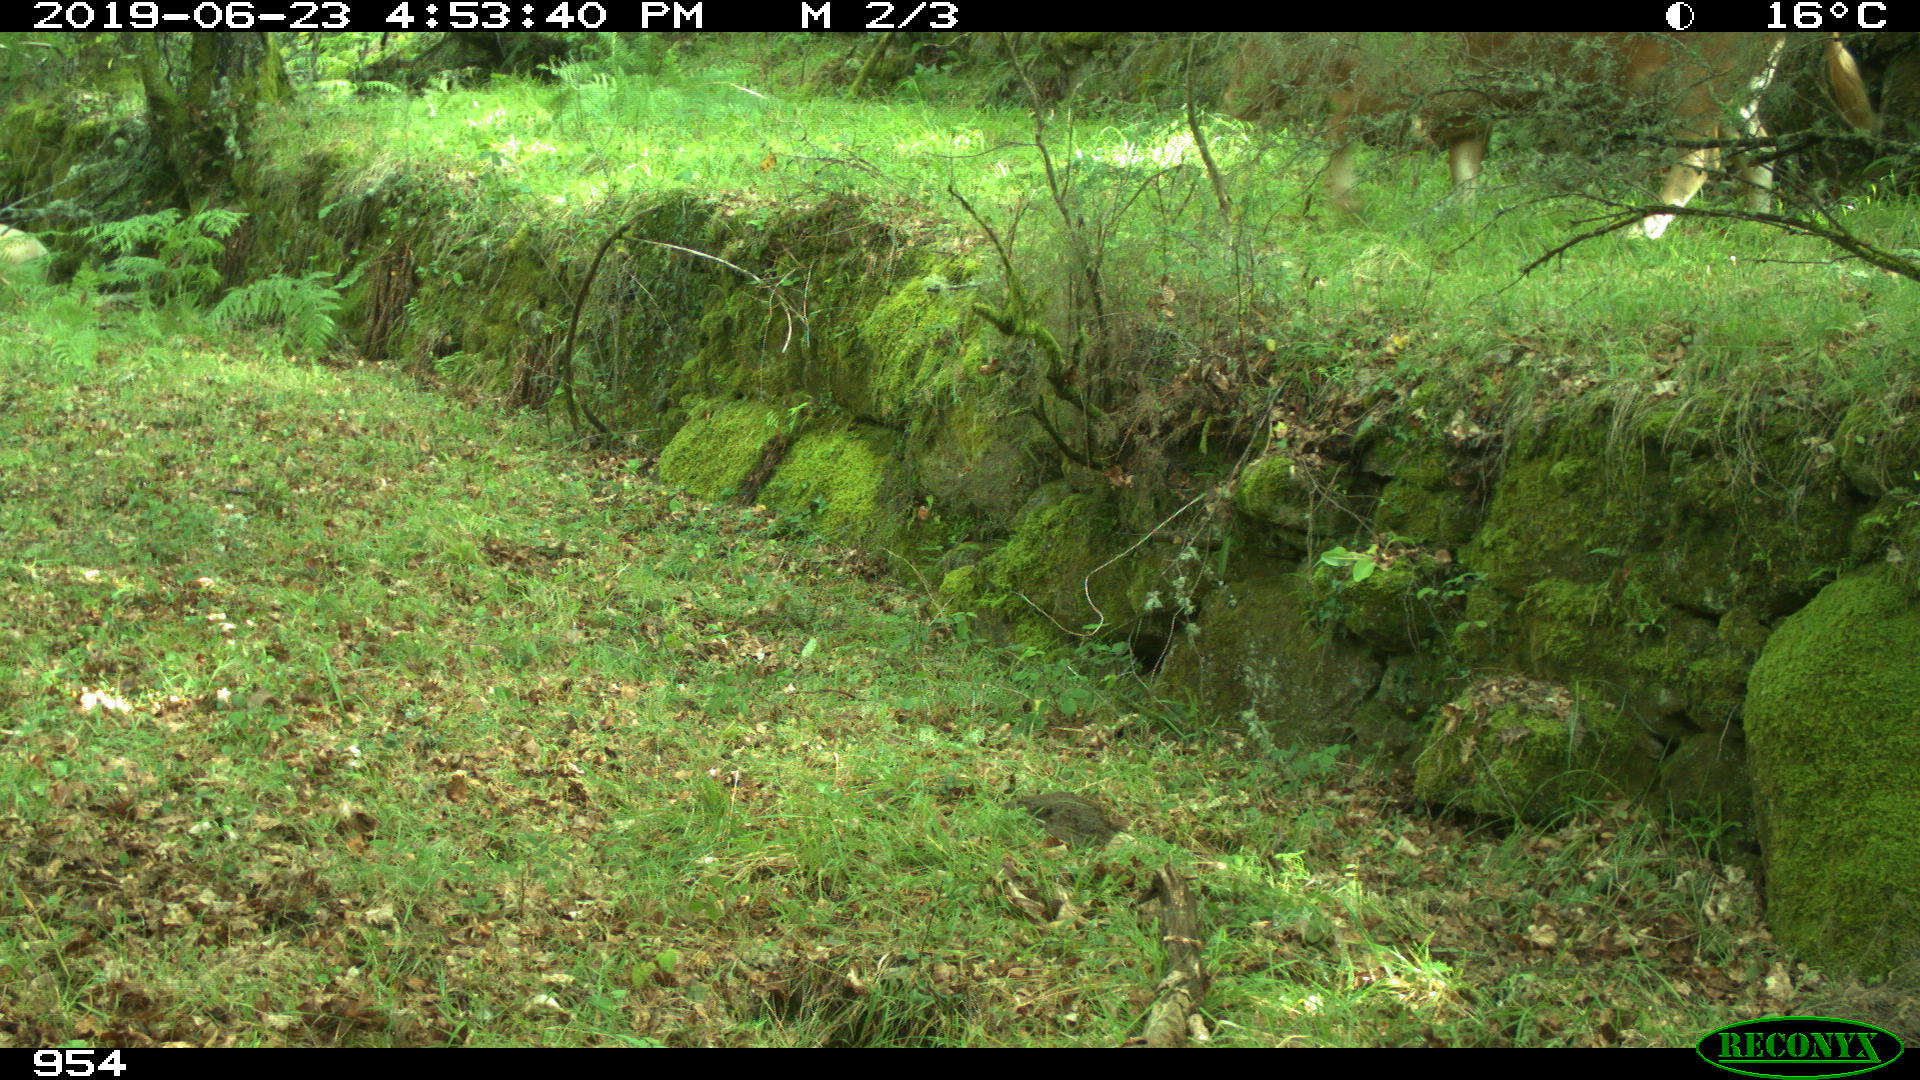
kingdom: Animalia
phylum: Chordata
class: Mammalia
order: Artiodactyla
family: Bovidae
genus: Bos
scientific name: Bos taurus
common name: Domesticated cattle
